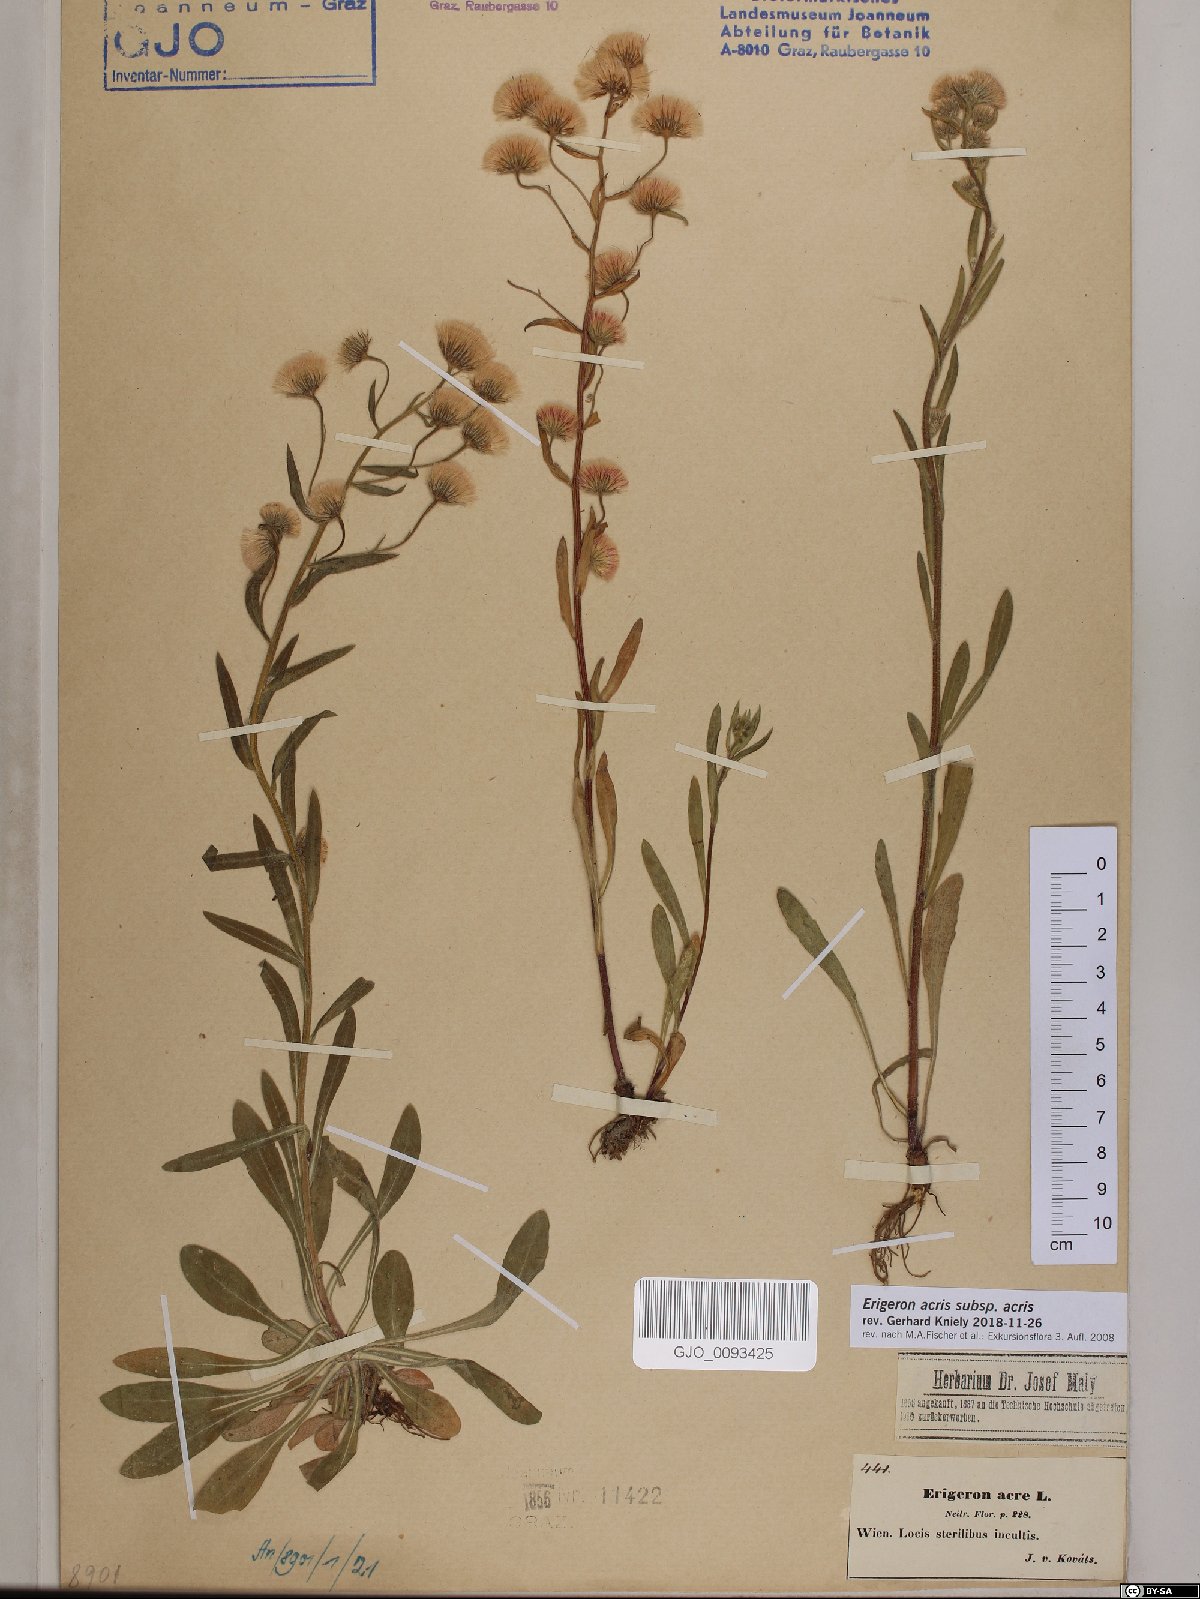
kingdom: Plantae
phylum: Tracheophyta
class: Magnoliopsida
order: Asterales
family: Asteraceae
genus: Erigeron
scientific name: Erigeron acris
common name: Blue fleabane
